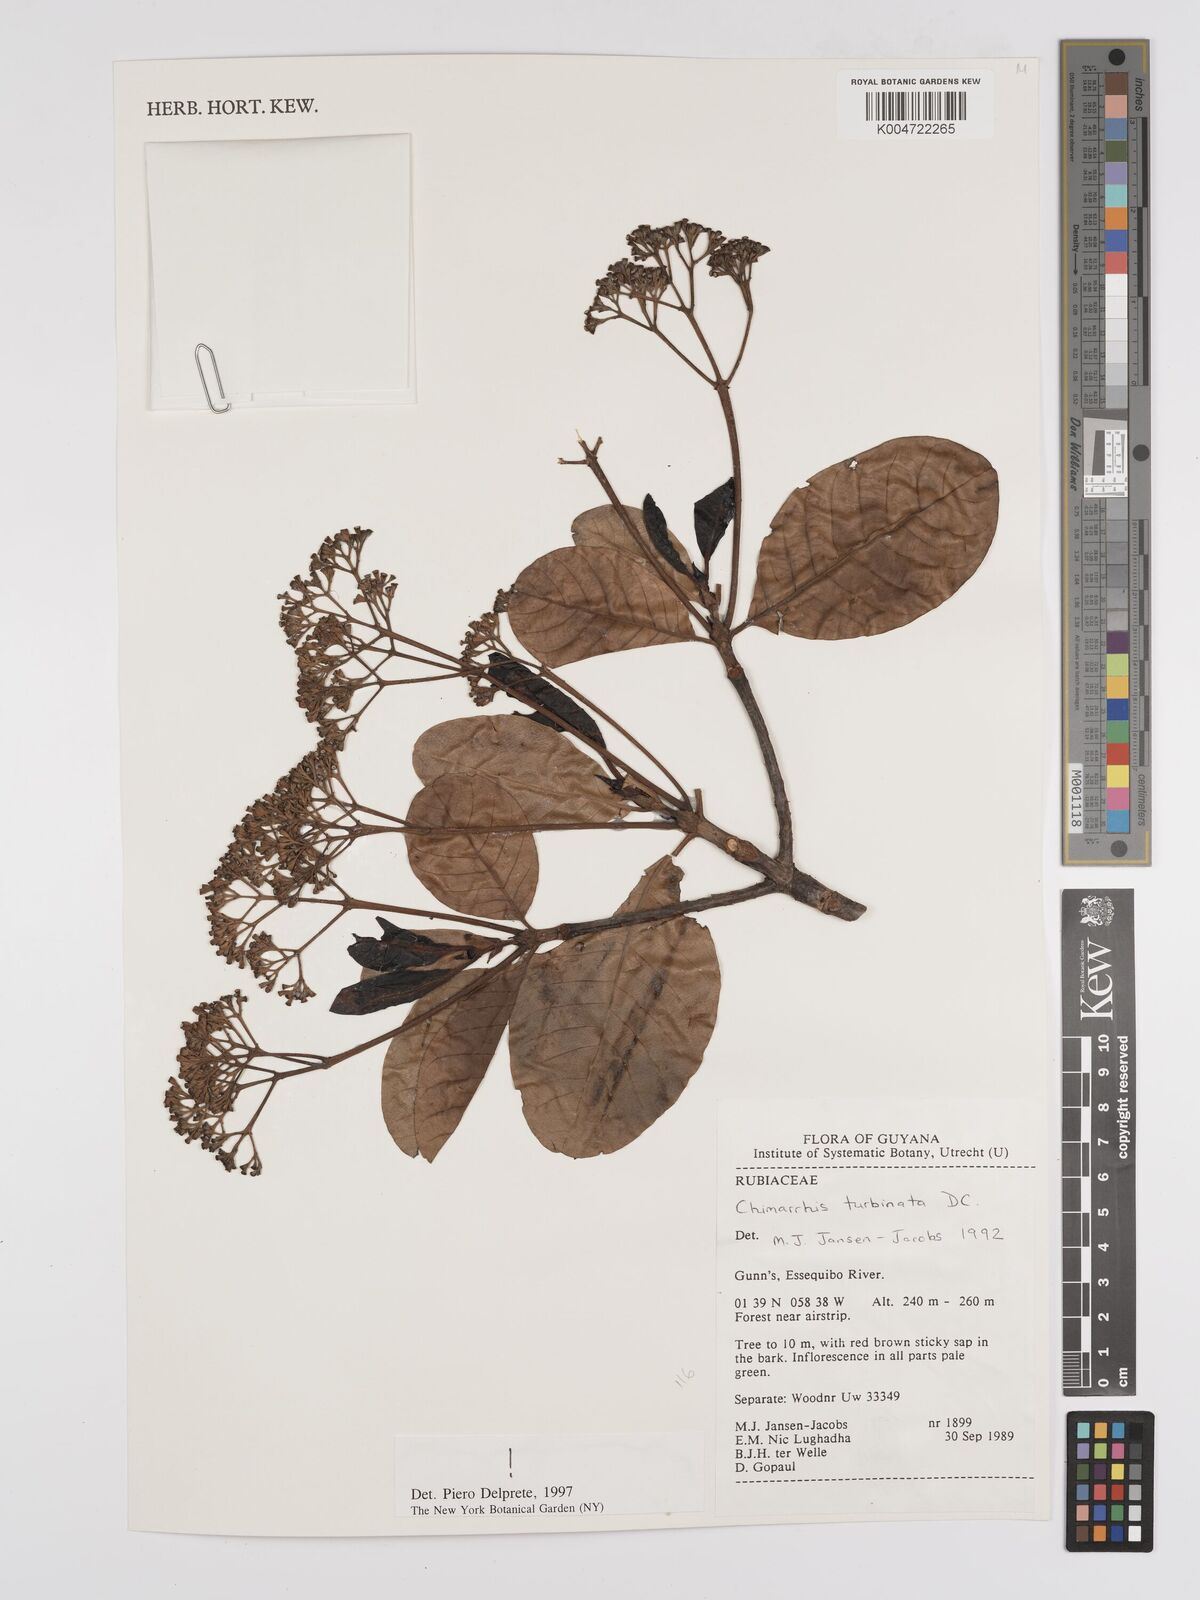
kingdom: Plantae
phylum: Tracheophyta
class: Magnoliopsida
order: Gentianales
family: Rubiaceae
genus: Chimarrhis
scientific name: Chimarrhis turbinata
